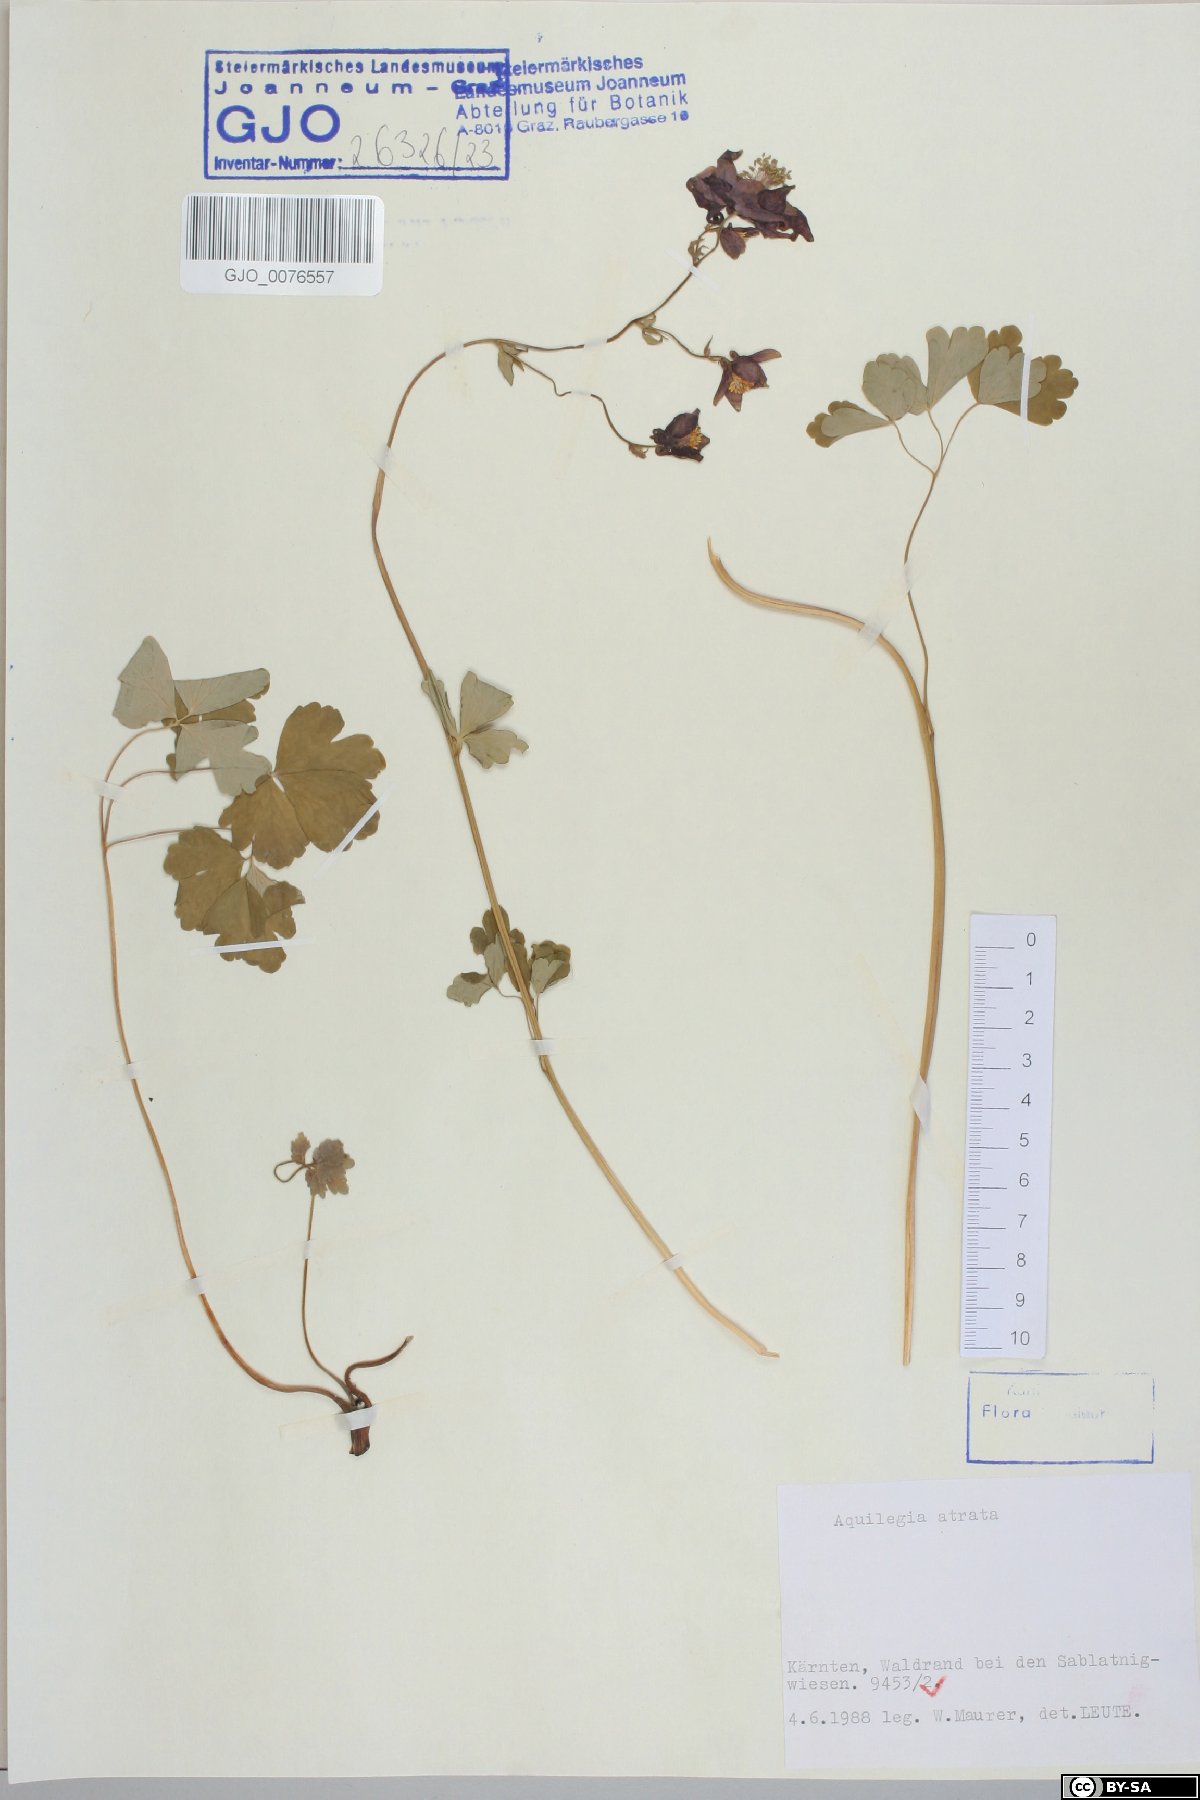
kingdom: Plantae
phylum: Tracheophyta
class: Magnoliopsida
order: Ranunculales
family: Ranunculaceae
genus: Aquilegia
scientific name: Aquilegia atrata
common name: Dark columbine
